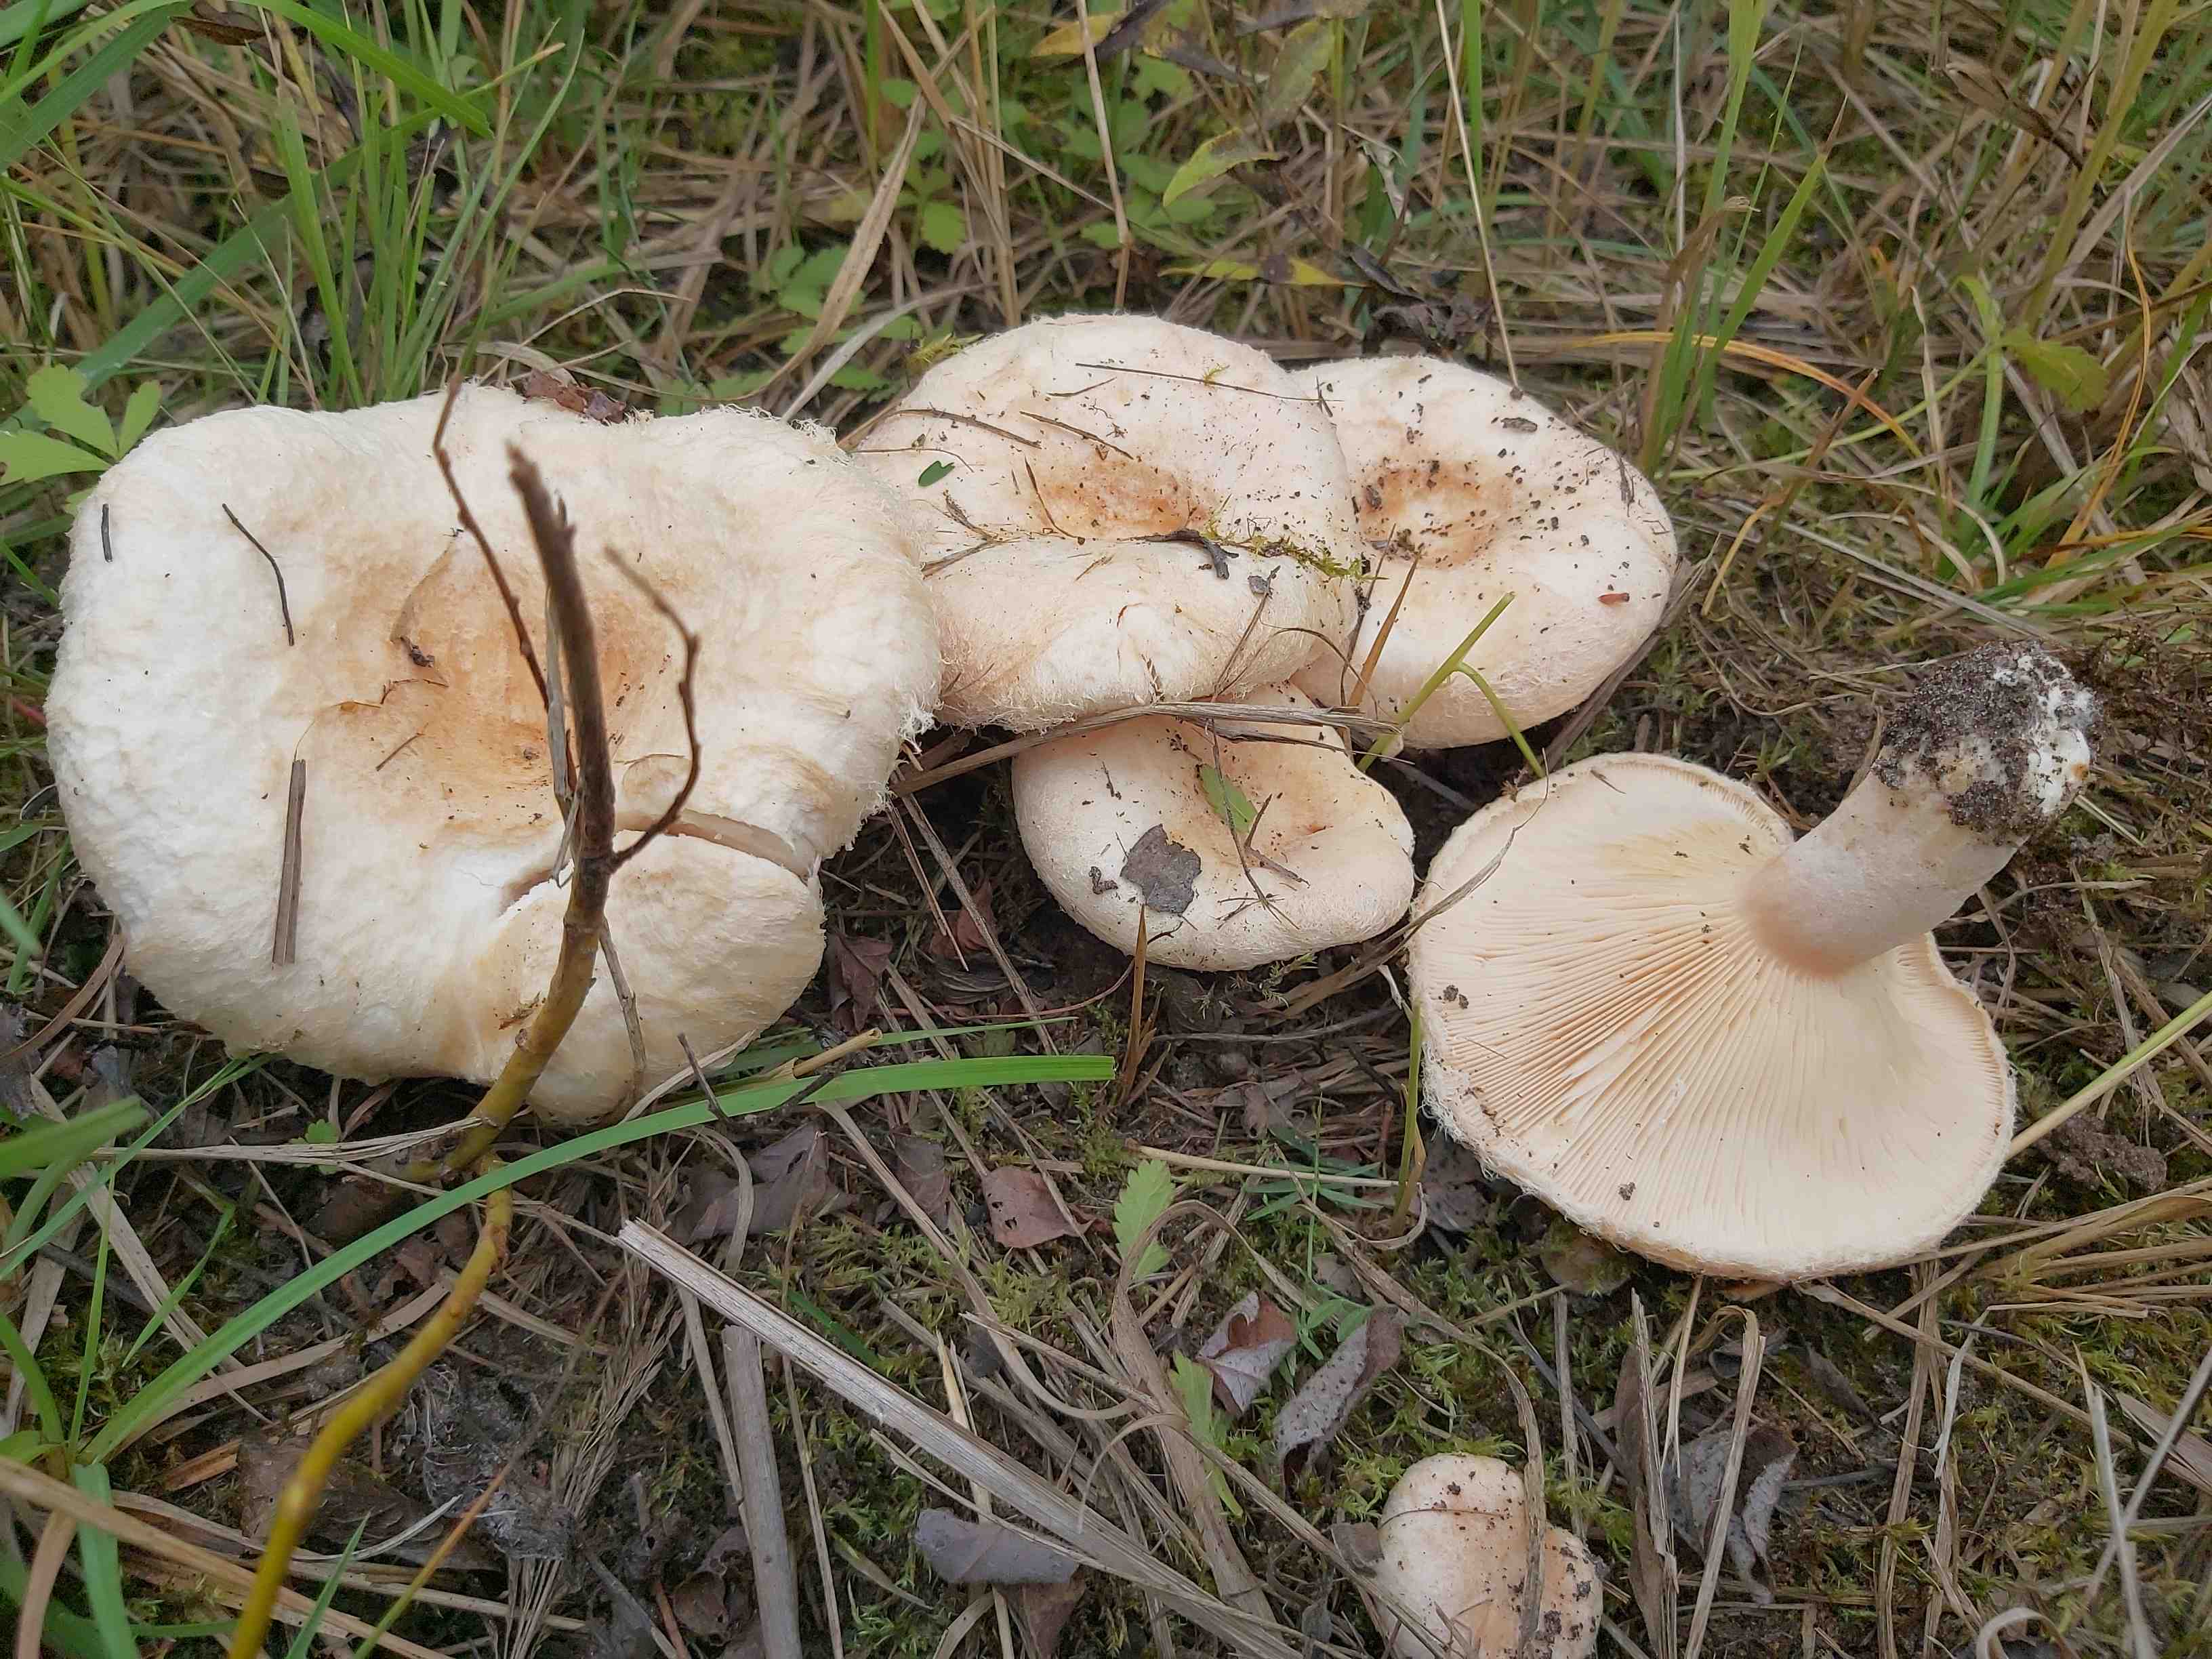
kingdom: Fungi
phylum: Basidiomycota
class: Agaricomycetes
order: Russulales
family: Russulaceae
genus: Lactarius
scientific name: Lactarius pubescens
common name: dunet mælkehat
